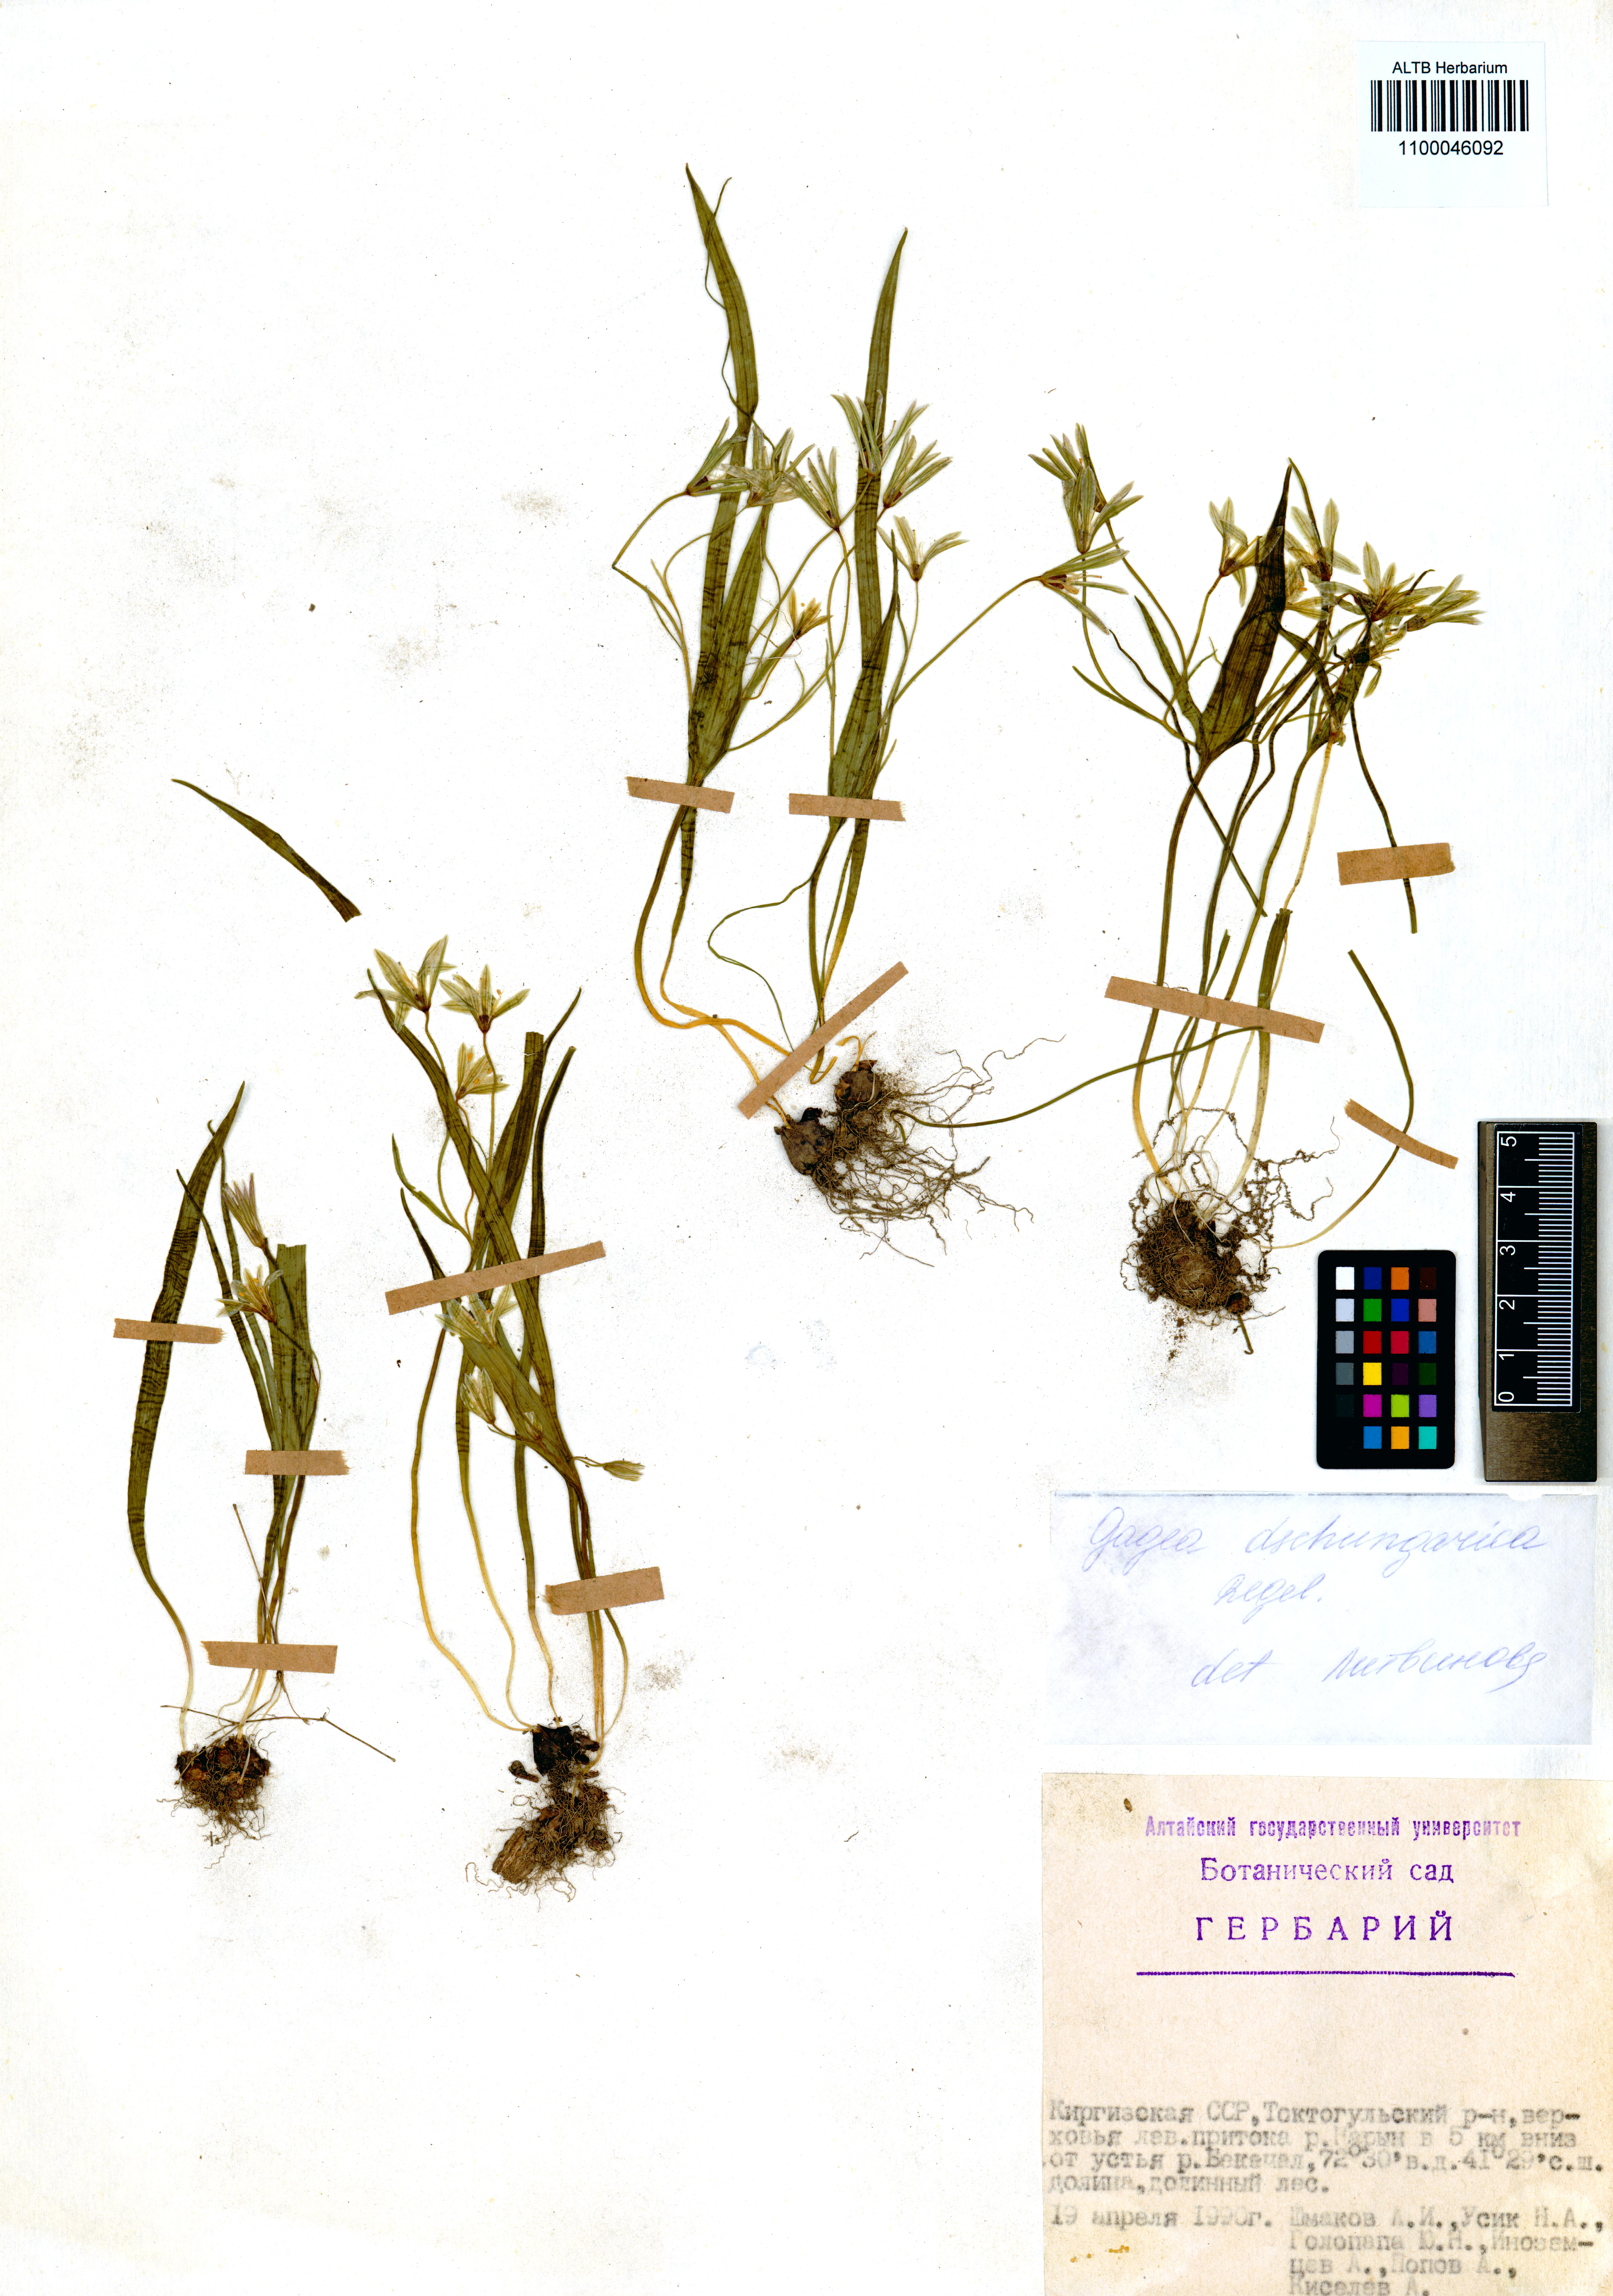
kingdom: Plantae
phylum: Tracheophyta
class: Liliopsida
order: Liliales
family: Liliaceae
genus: Gagea
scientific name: Gagea dschungarica
